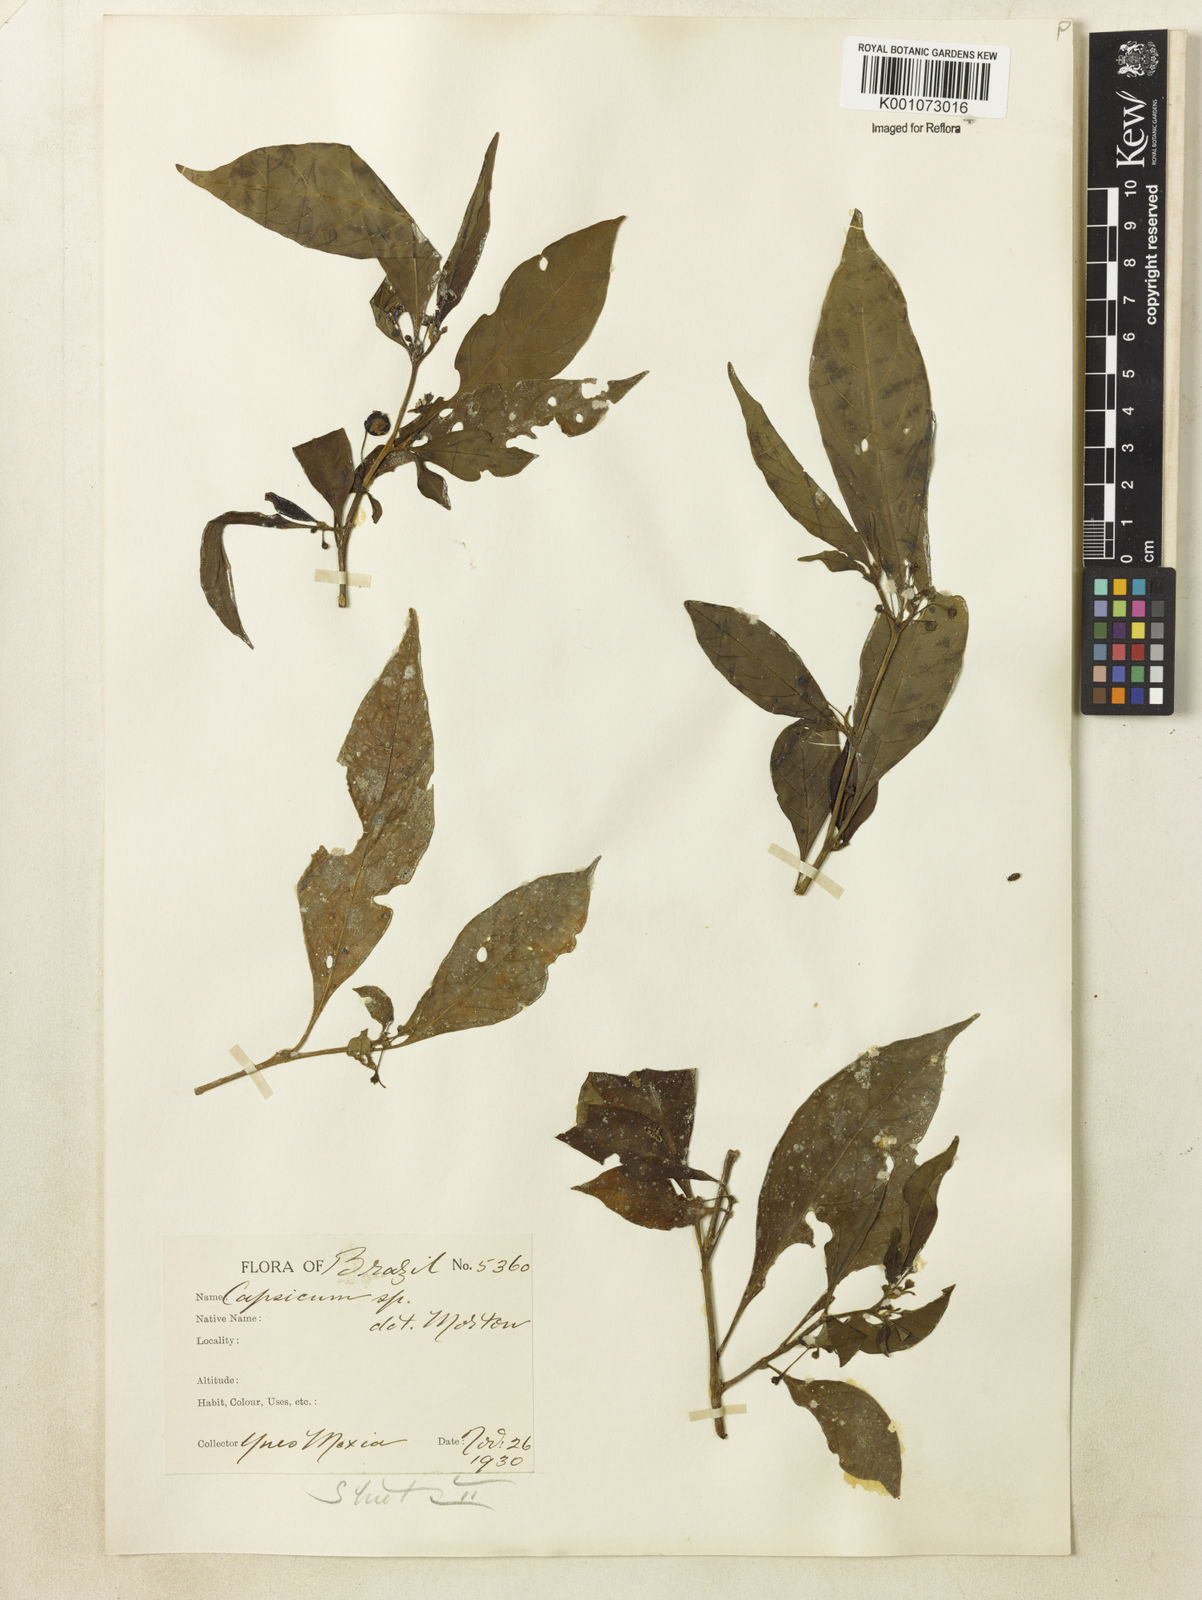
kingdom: Plantae
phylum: Tracheophyta
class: Magnoliopsida
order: Solanales
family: Solanaceae
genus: Athenaea
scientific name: Athenaea fasciculata
